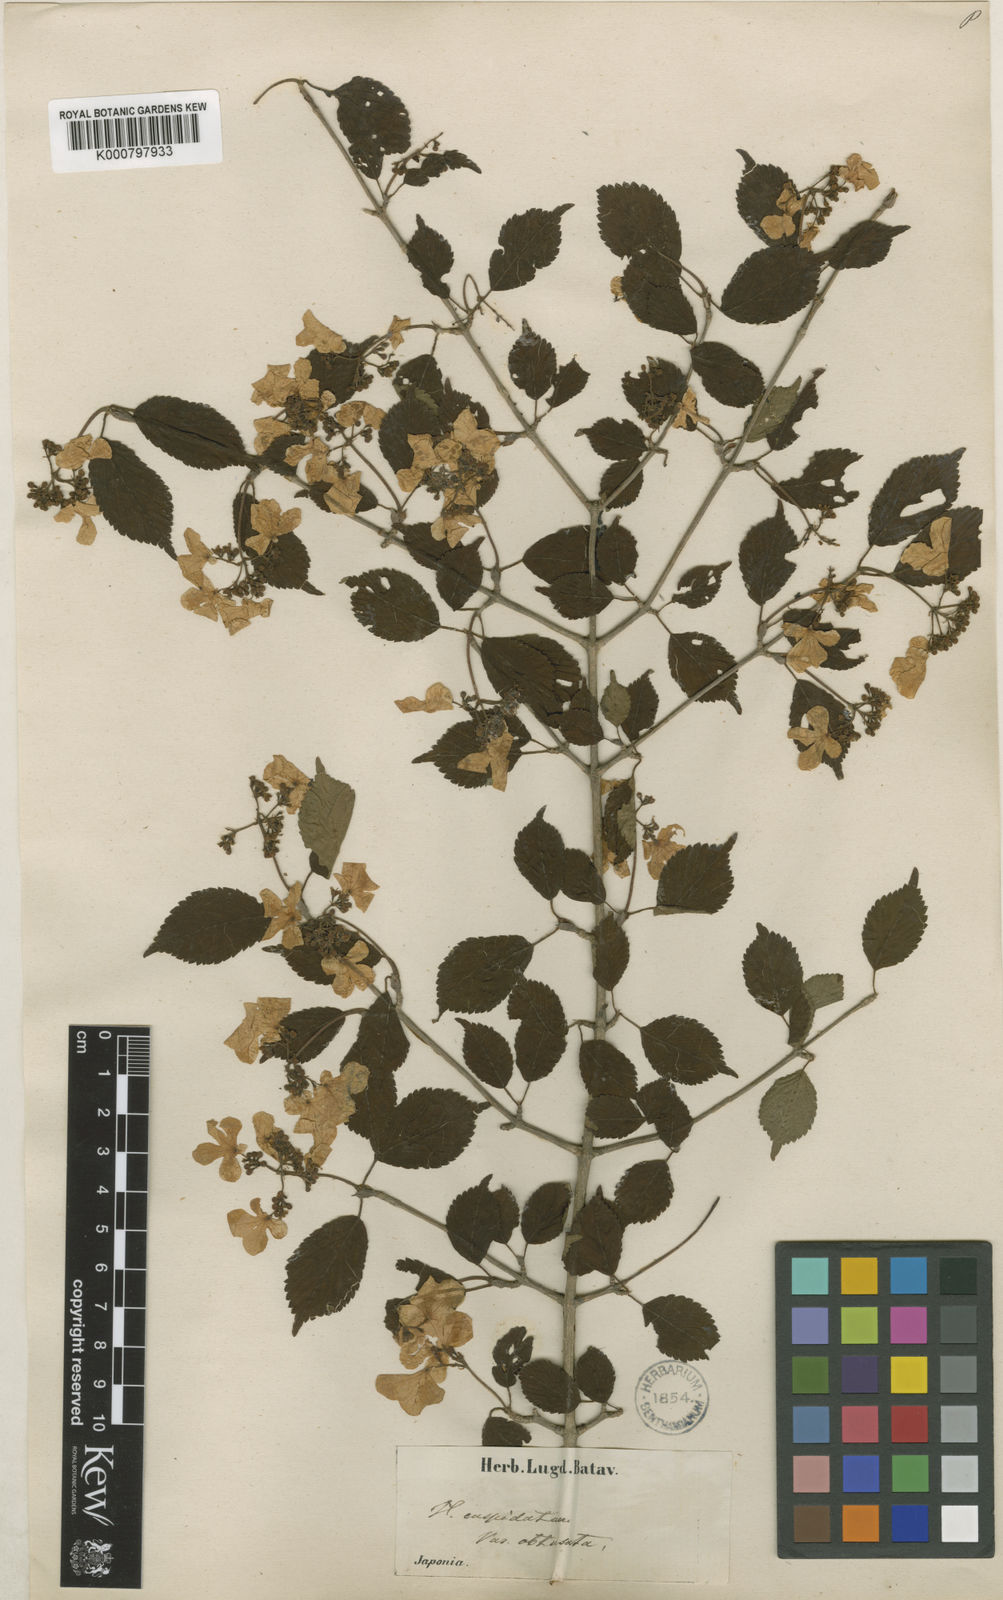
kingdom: Plantae
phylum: Tracheophyta
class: Magnoliopsida
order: Dipsacales
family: Viburnaceae
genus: Viburnum
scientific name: Viburnum
